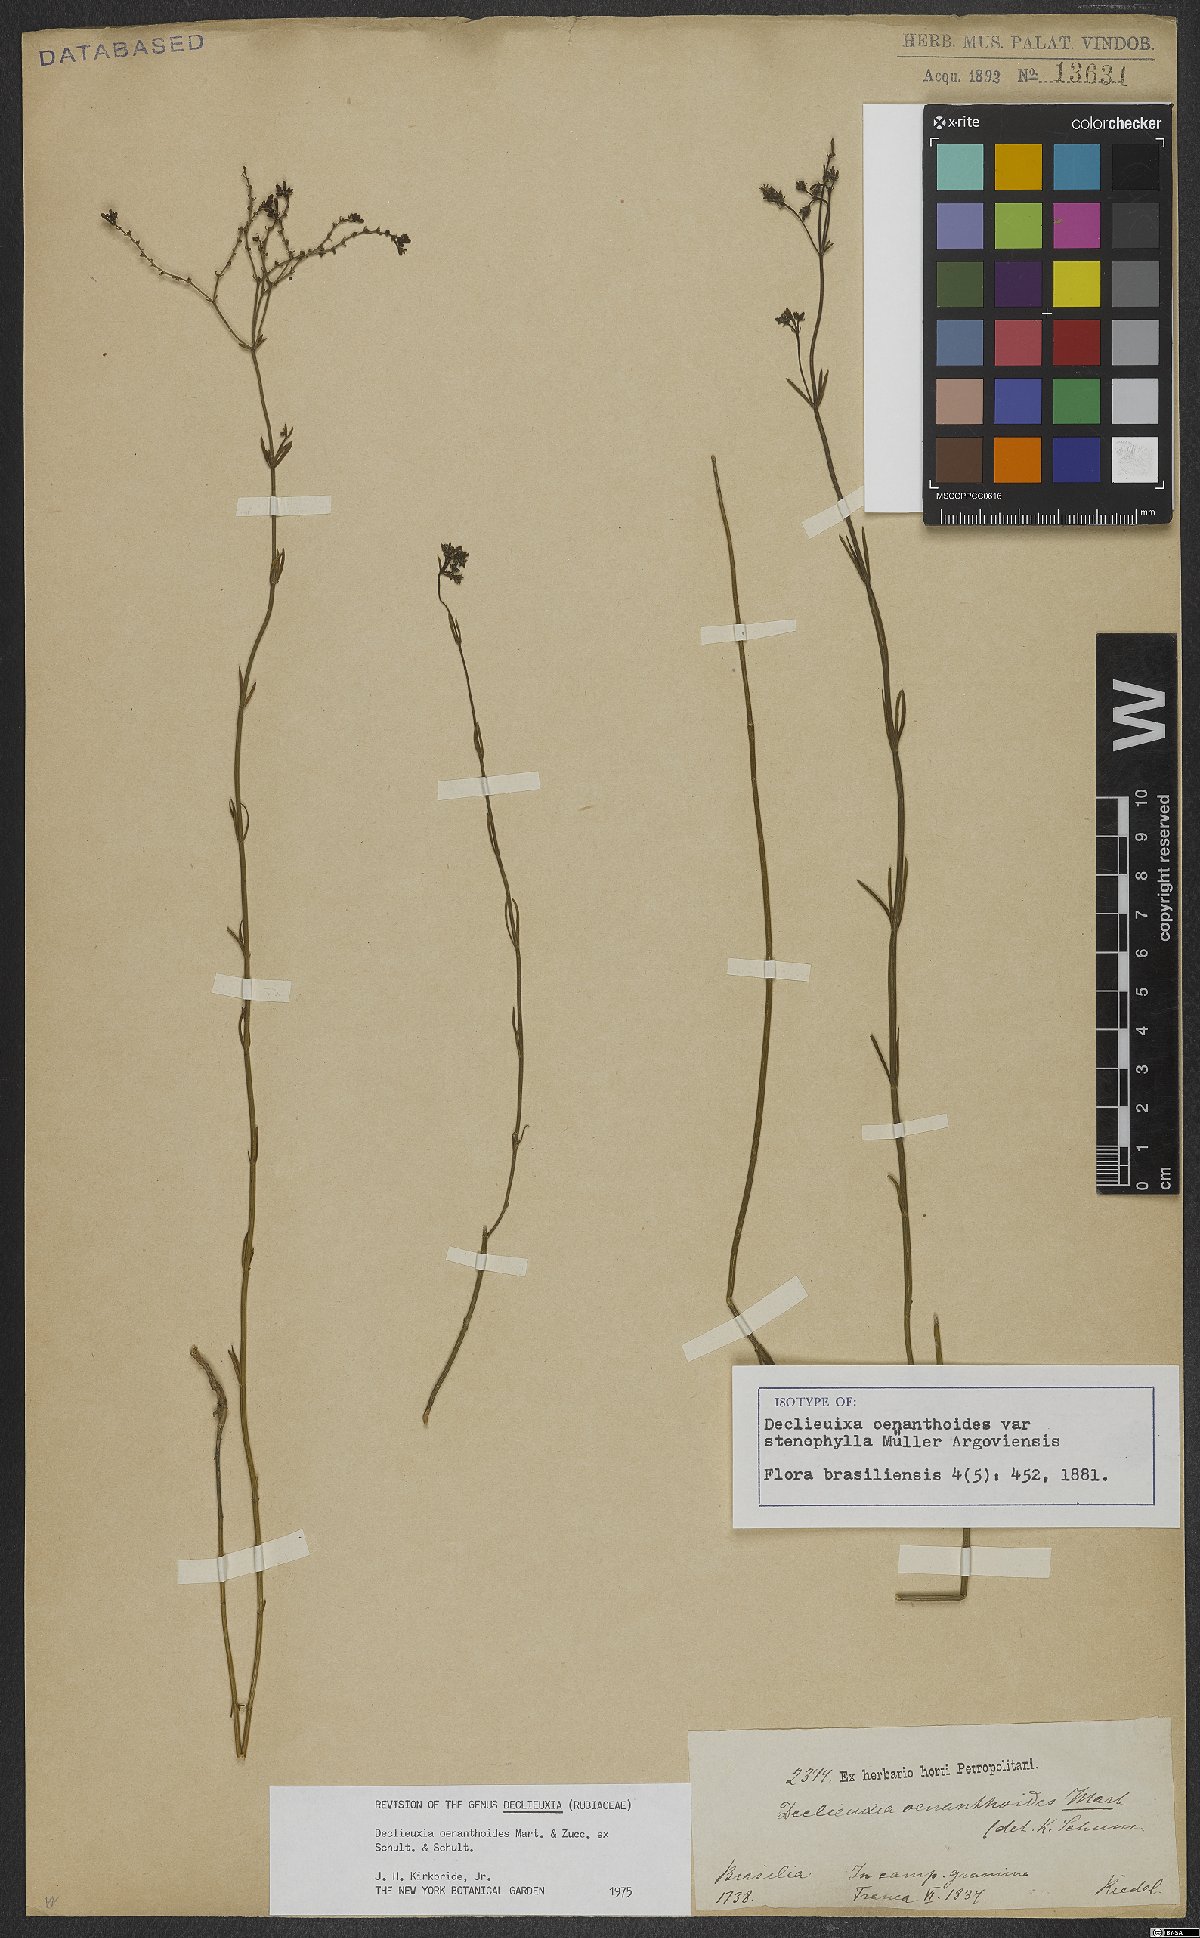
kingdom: Plantae
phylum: Tracheophyta
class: Magnoliopsida
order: Gentianales
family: Rubiaceae
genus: Declieuxia
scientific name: Declieuxia oenanthoides
